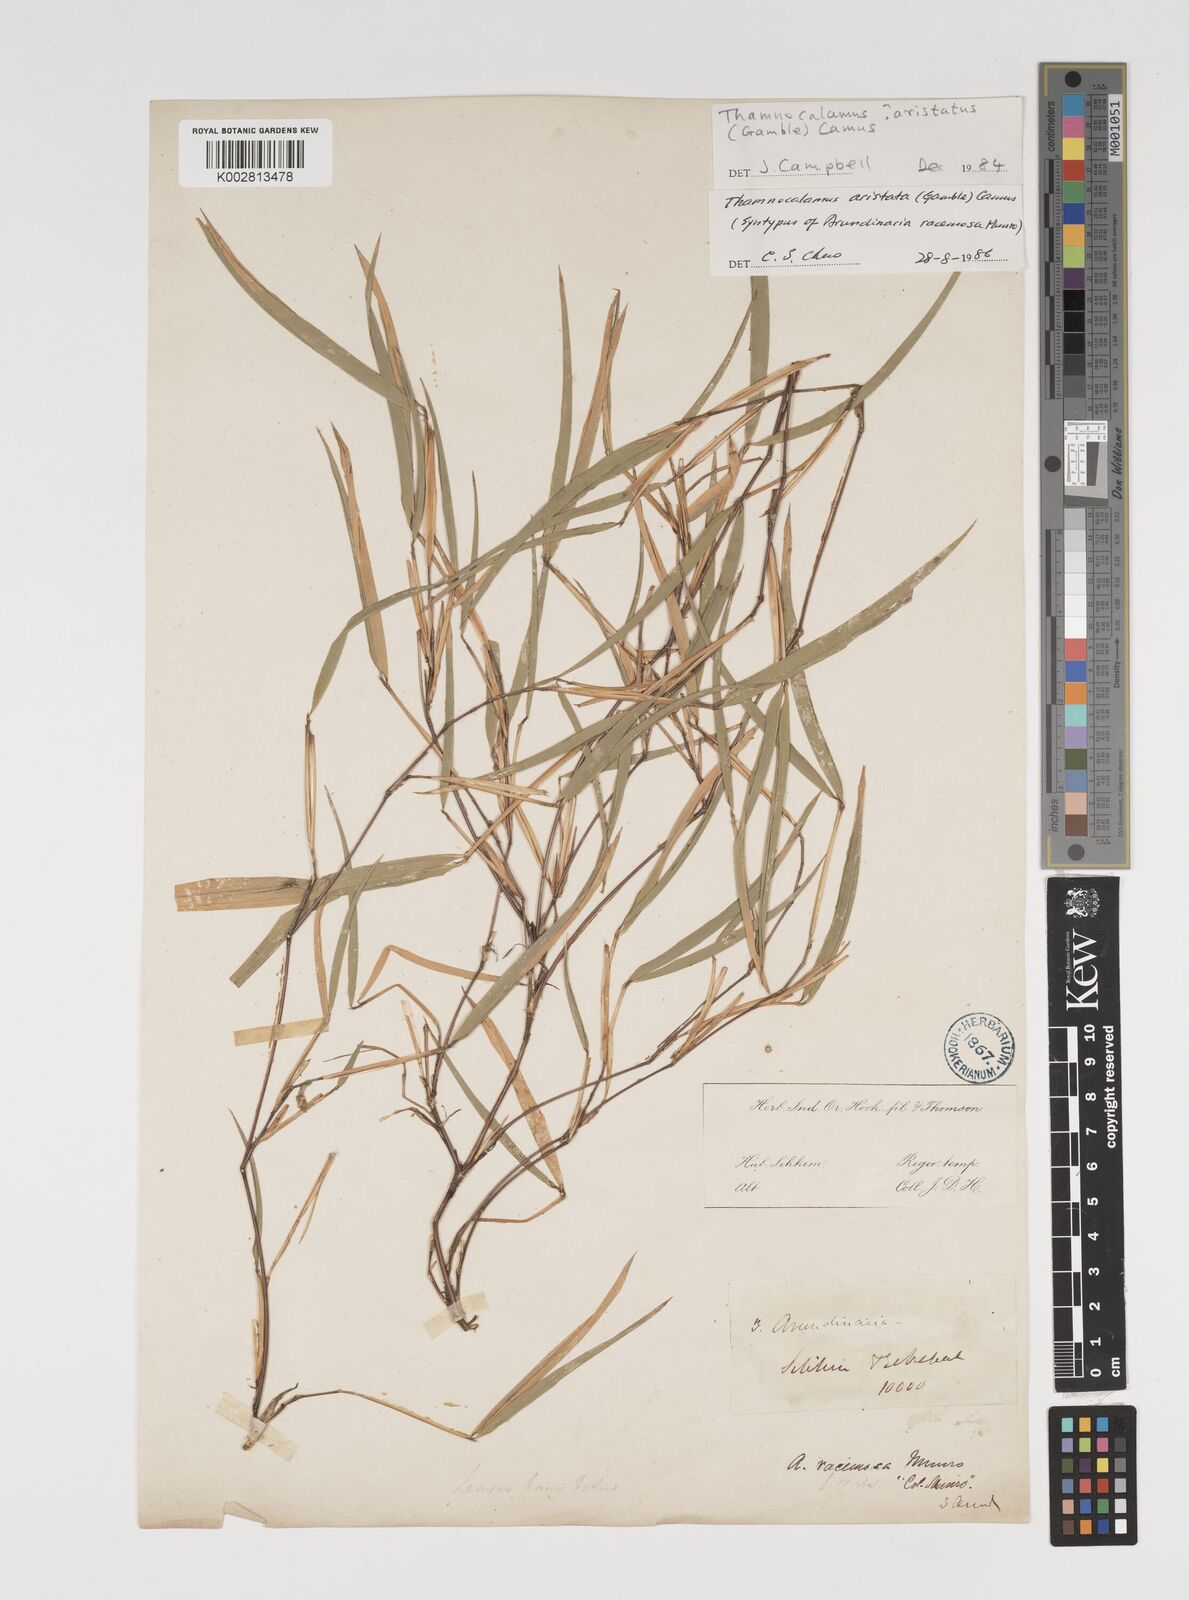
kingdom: Plantae
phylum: Tracheophyta
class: Liliopsida
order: Poales
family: Poaceae
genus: Thamnocalamus
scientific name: Thamnocalamus spathiflorus
